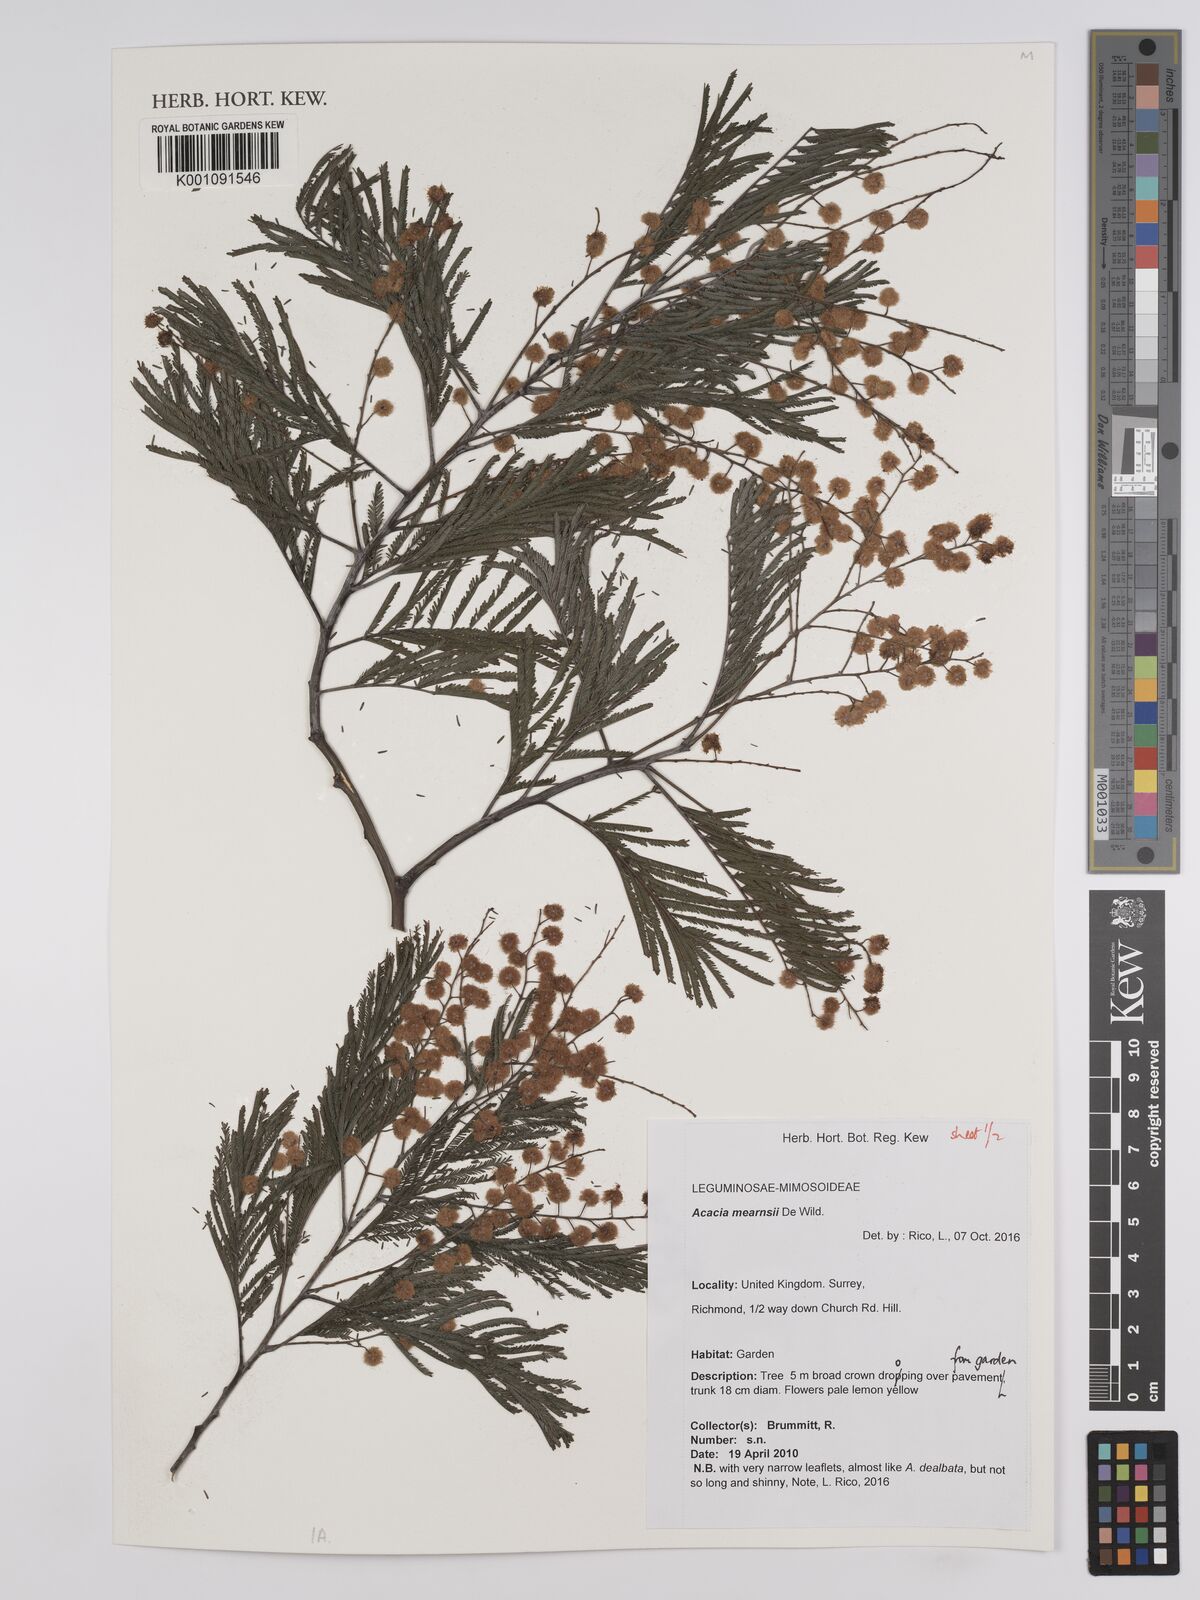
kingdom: Plantae
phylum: Tracheophyta
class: Magnoliopsida
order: Fabales
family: Fabaceae
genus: Acacia
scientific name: Acacia mearnsii
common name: Black wattle
